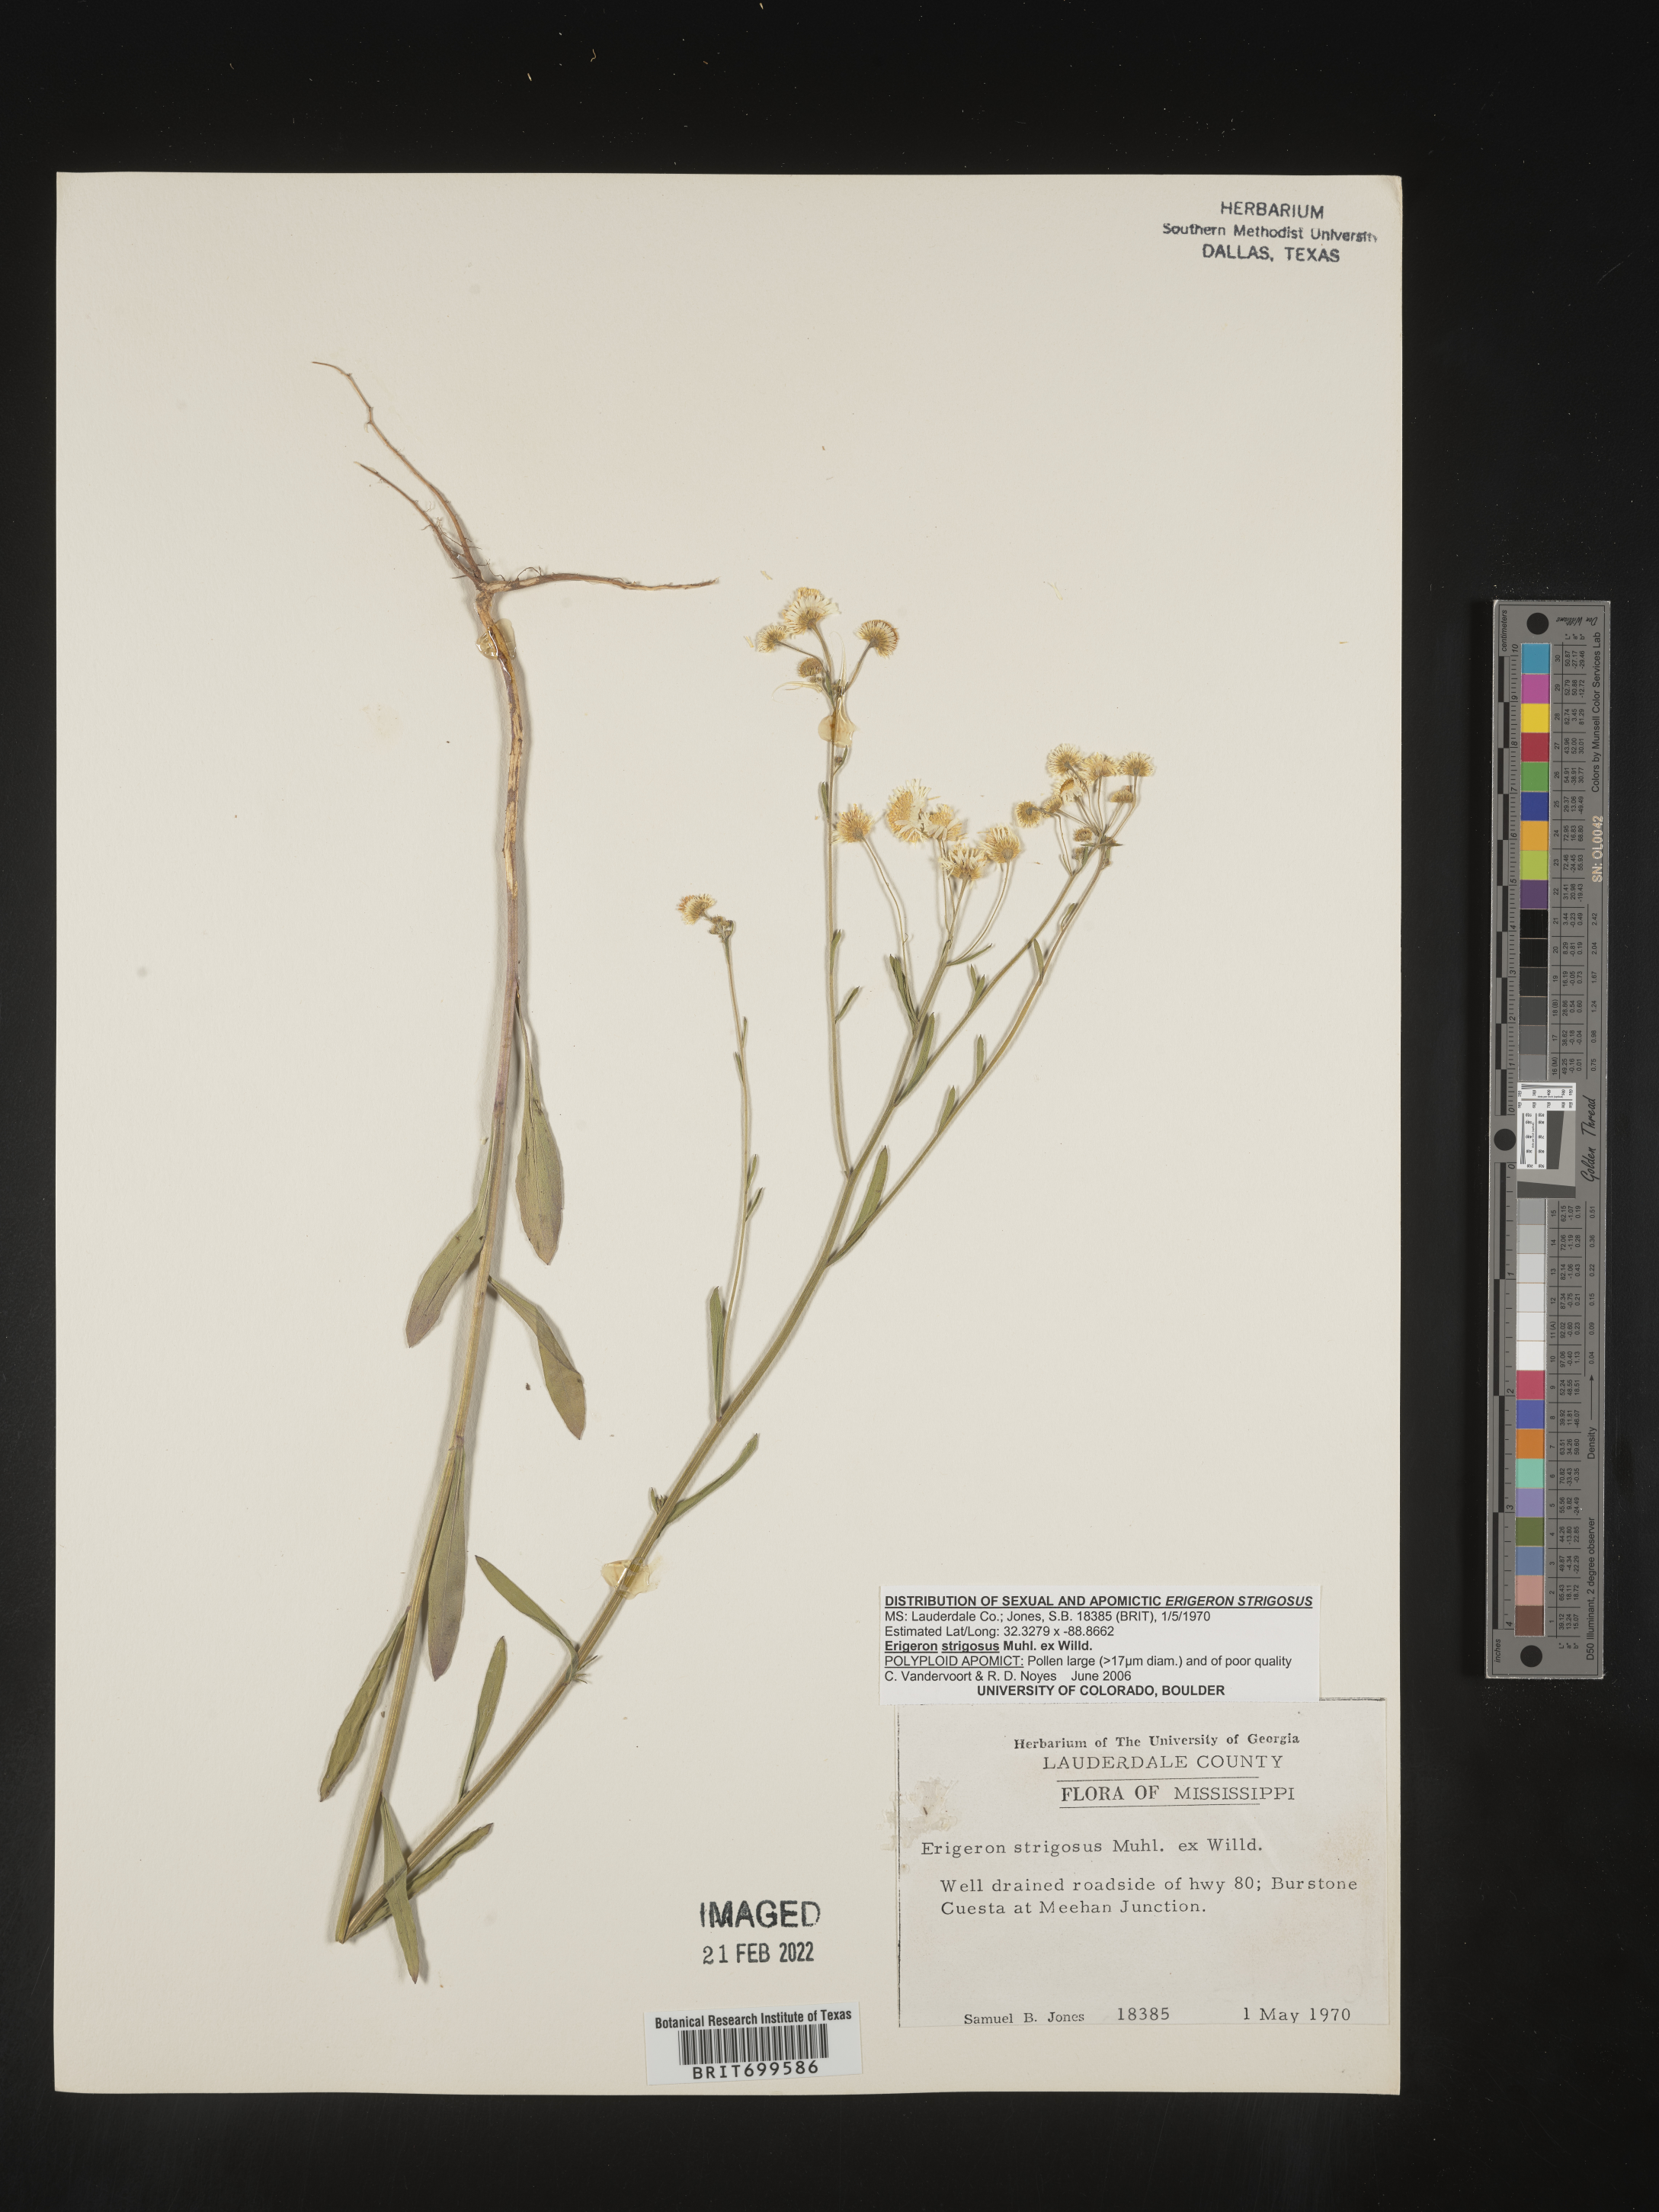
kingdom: Plantae
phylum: Tracheophyta
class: Magnoliopsida
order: Asterales
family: Asteraceae
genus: Erigeron
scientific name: Erigeron strigosus
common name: Common eastern fleabane
